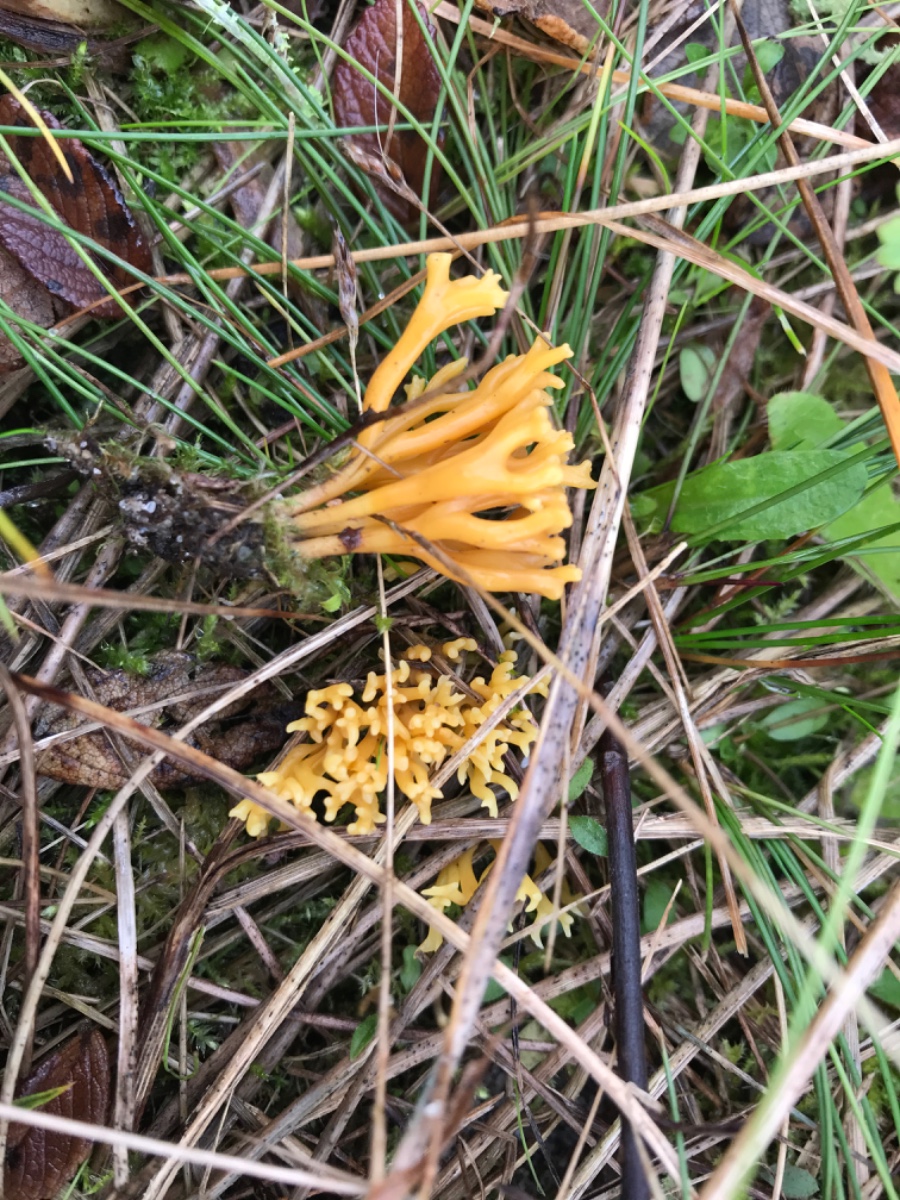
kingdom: Fungi
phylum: Basidiomycota
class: Agaricomycetes
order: Agaricales
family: Clavariaceae
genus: Clavulinopsis
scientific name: Clavulinopsis corniculata
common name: eng-køllesvamp
